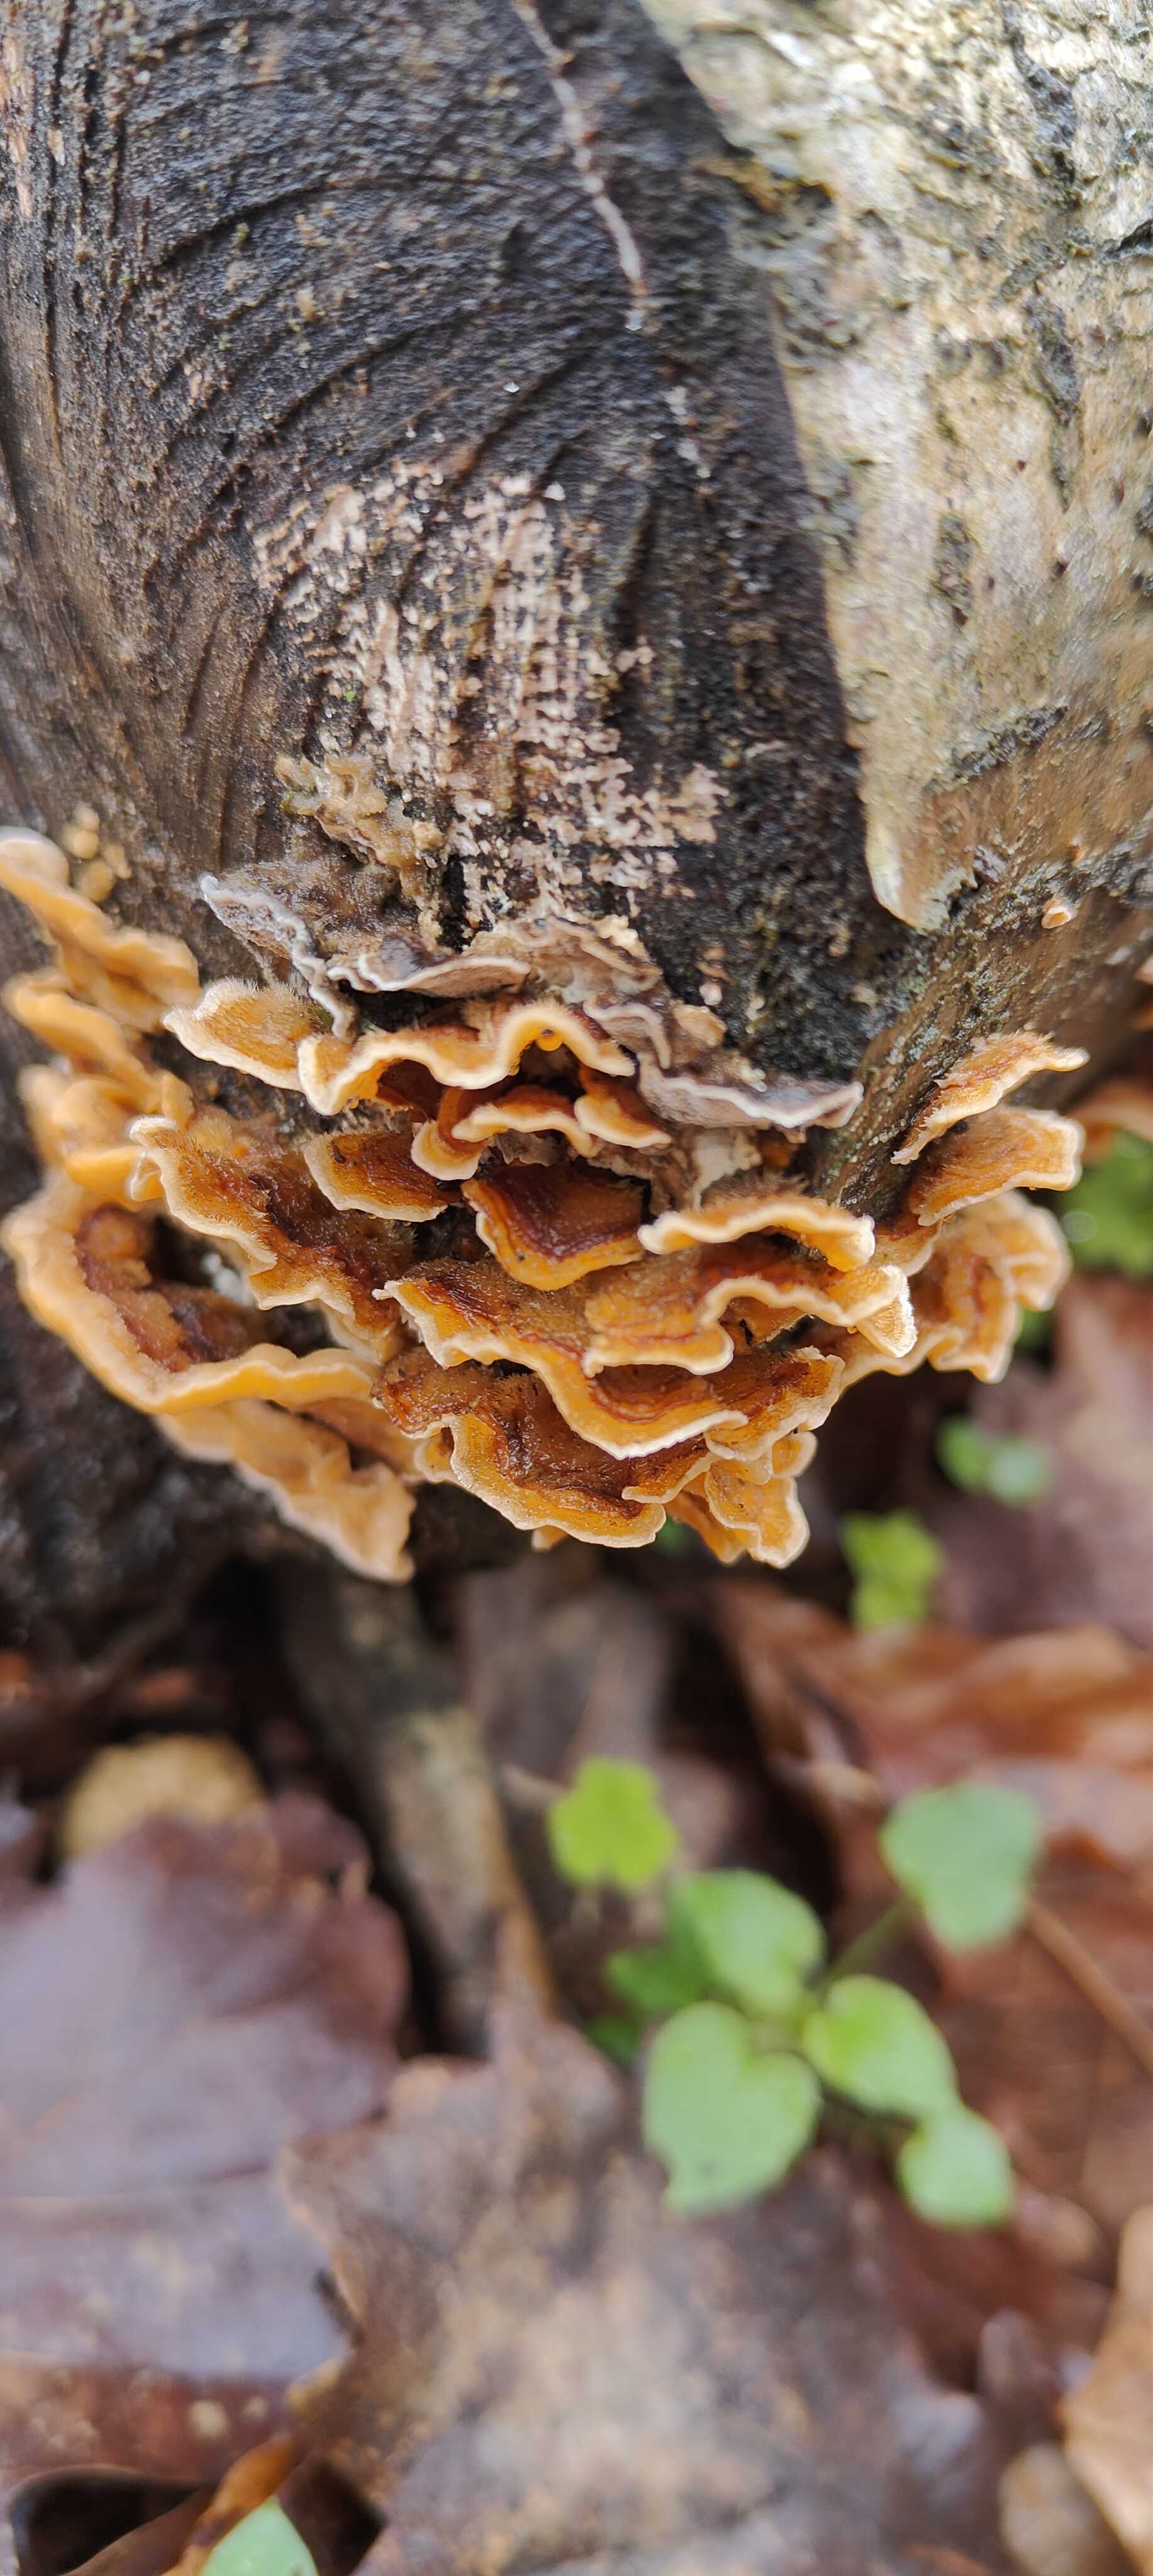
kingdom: Fungi
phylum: Basidiomycota
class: Agaricomycetes
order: Russulales
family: Stereaceae
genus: Stereum
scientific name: Stereum hirsutum
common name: håret lædersvamp
